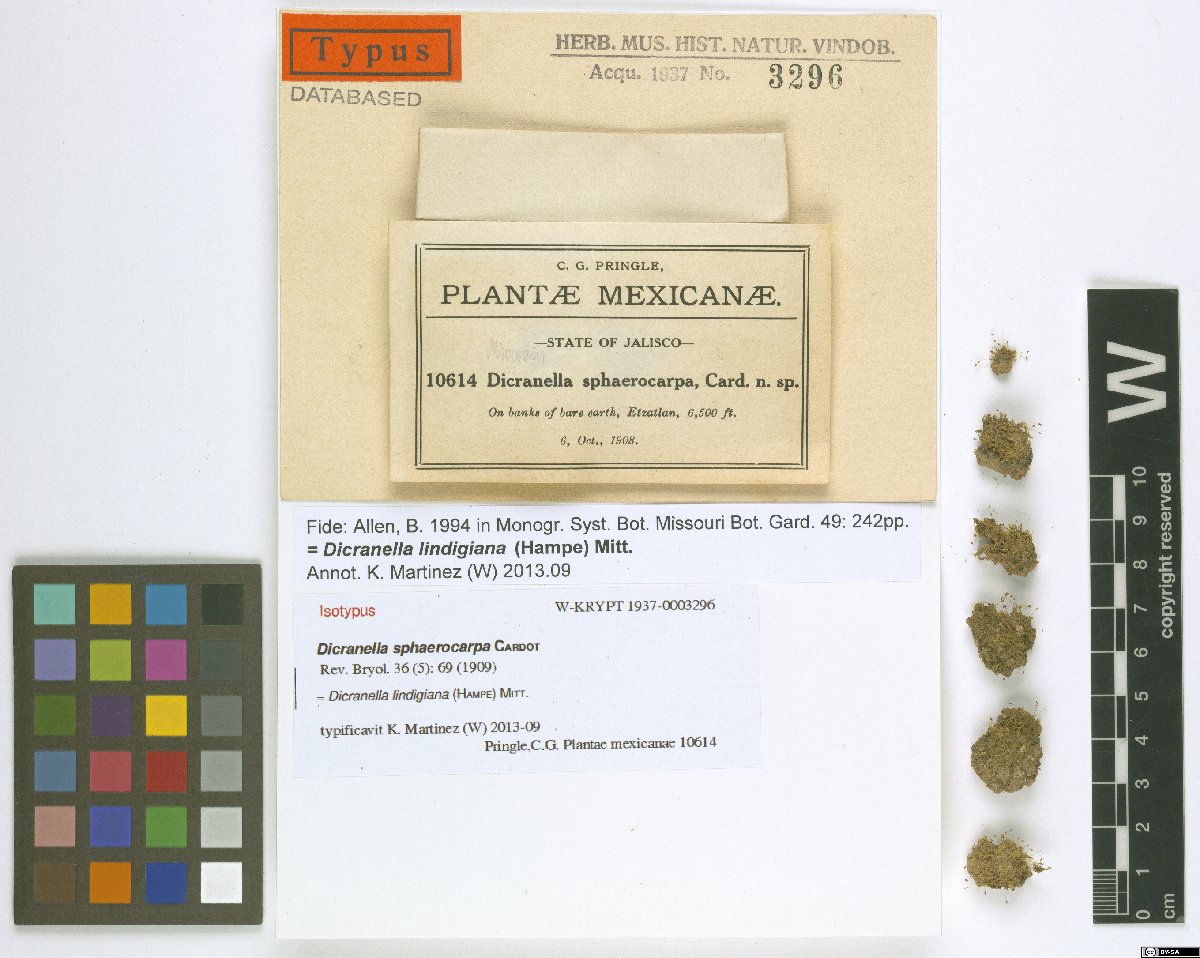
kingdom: Plantae
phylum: Bryophyta
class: Bryopsida
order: Dicranales
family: Dicranellaceae
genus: Dicranella
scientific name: Dicranella lindigiana
